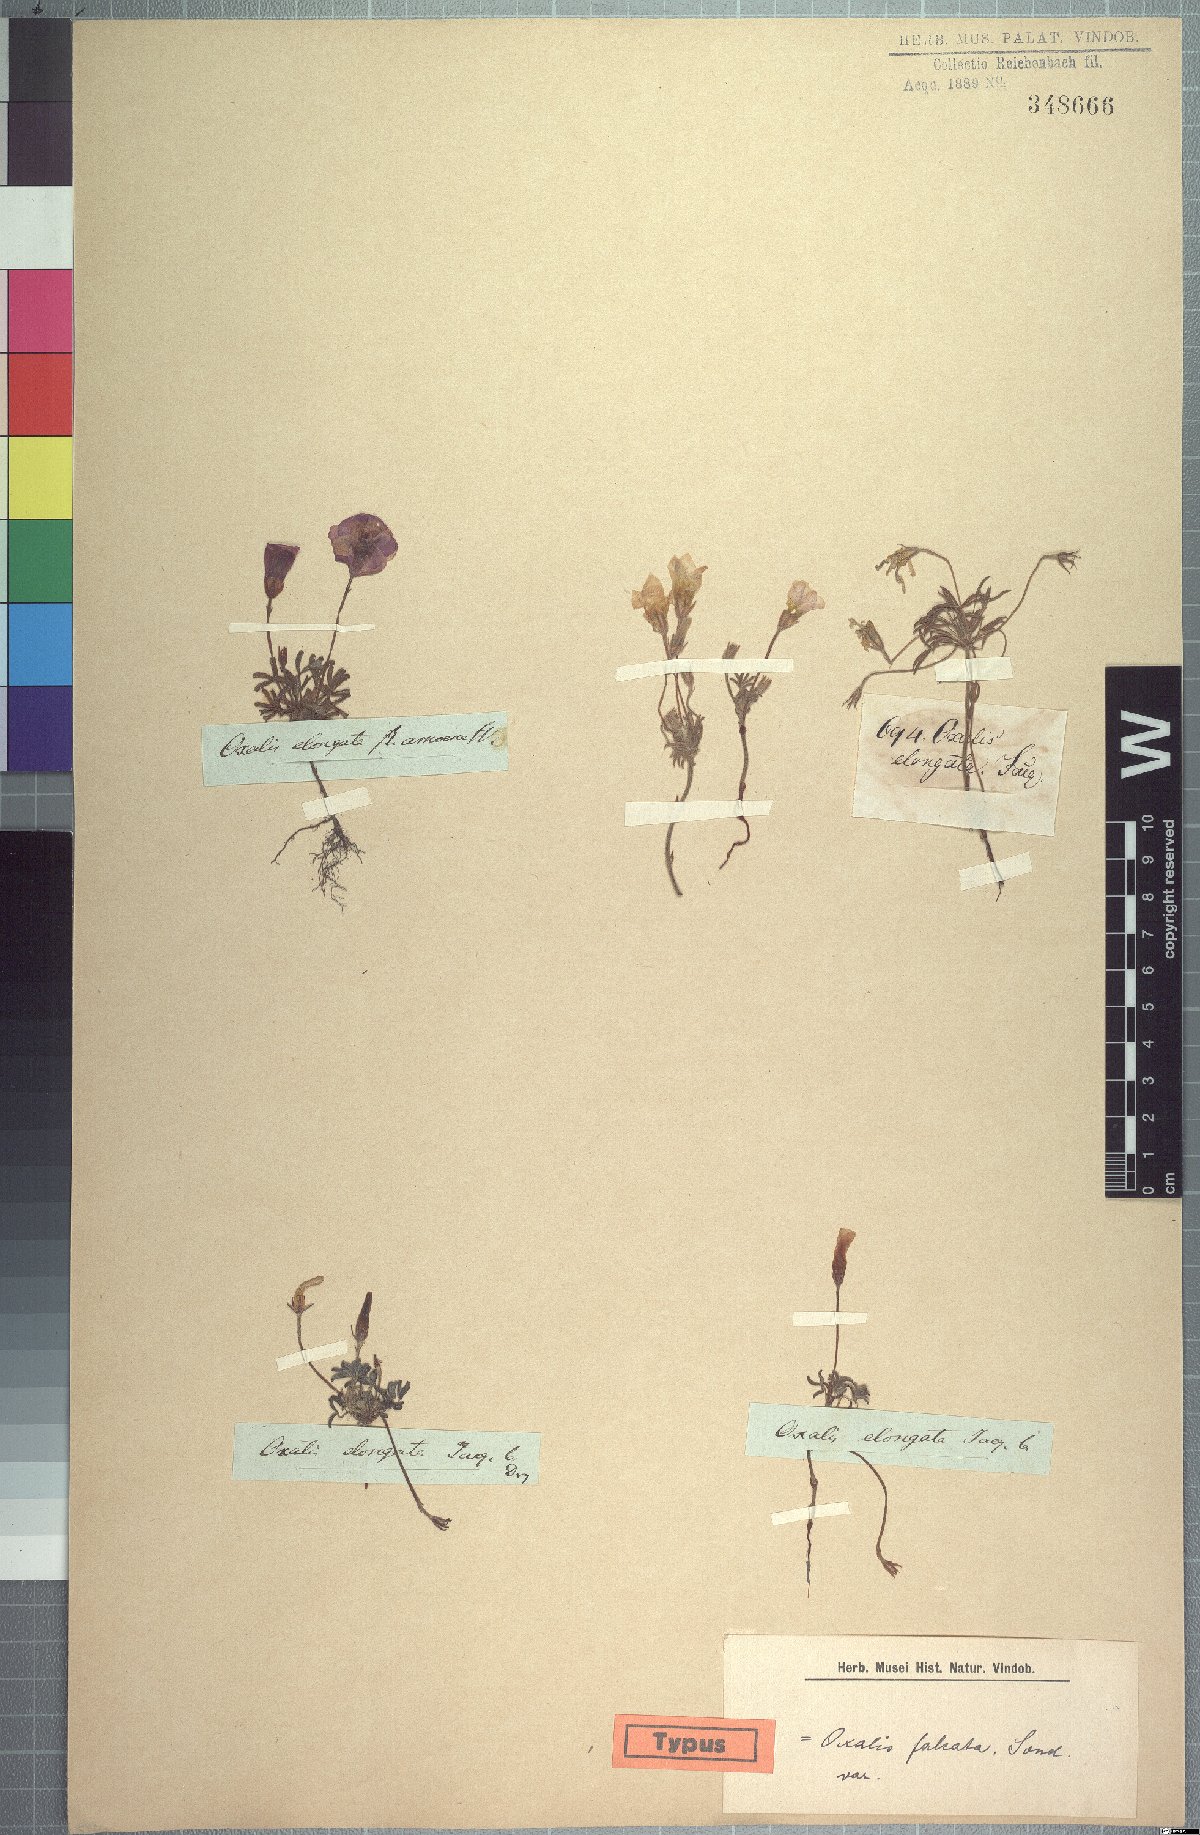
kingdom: Plantae
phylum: Tracheophyta
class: Magnoliopsida
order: Oxalidales
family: Oxalidaceae
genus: Oxalis
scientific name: Oxalis argyrophylla
